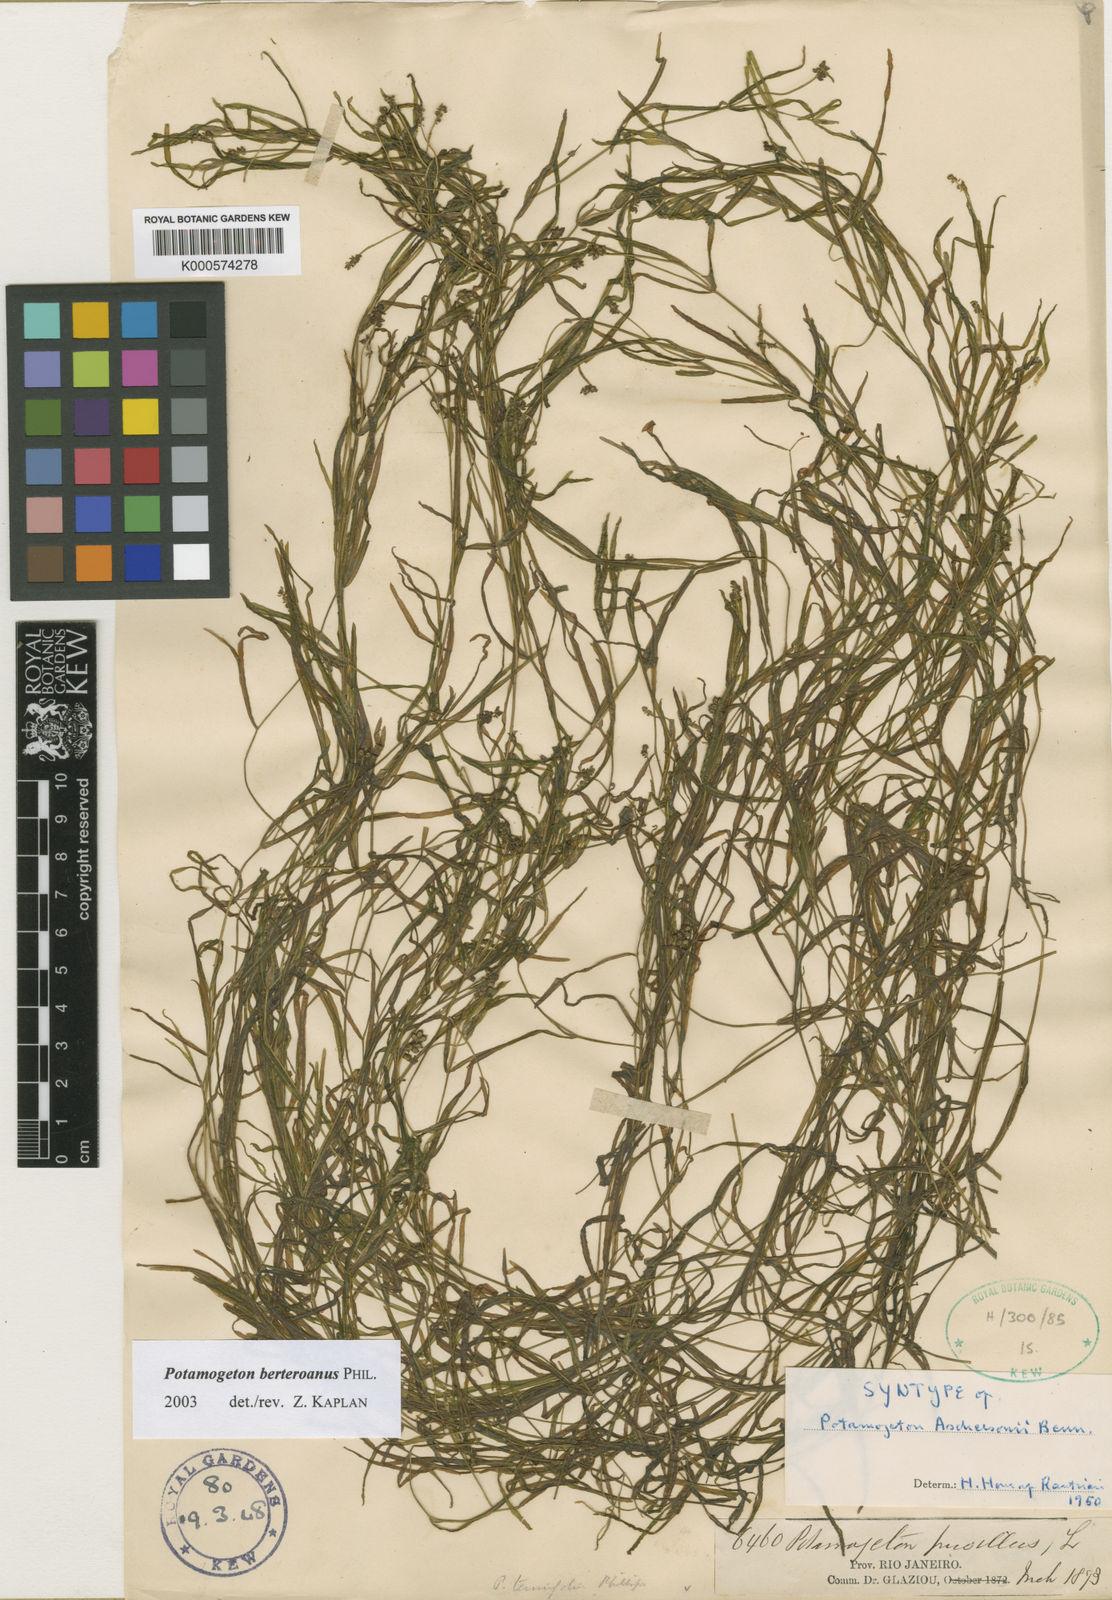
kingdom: Plantae
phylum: Tracheophyta
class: Liliopsida
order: Alismatales
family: Potamogetonaceae
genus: Potamogeton
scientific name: Potamogeton pusillus
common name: Lesser pondweed
